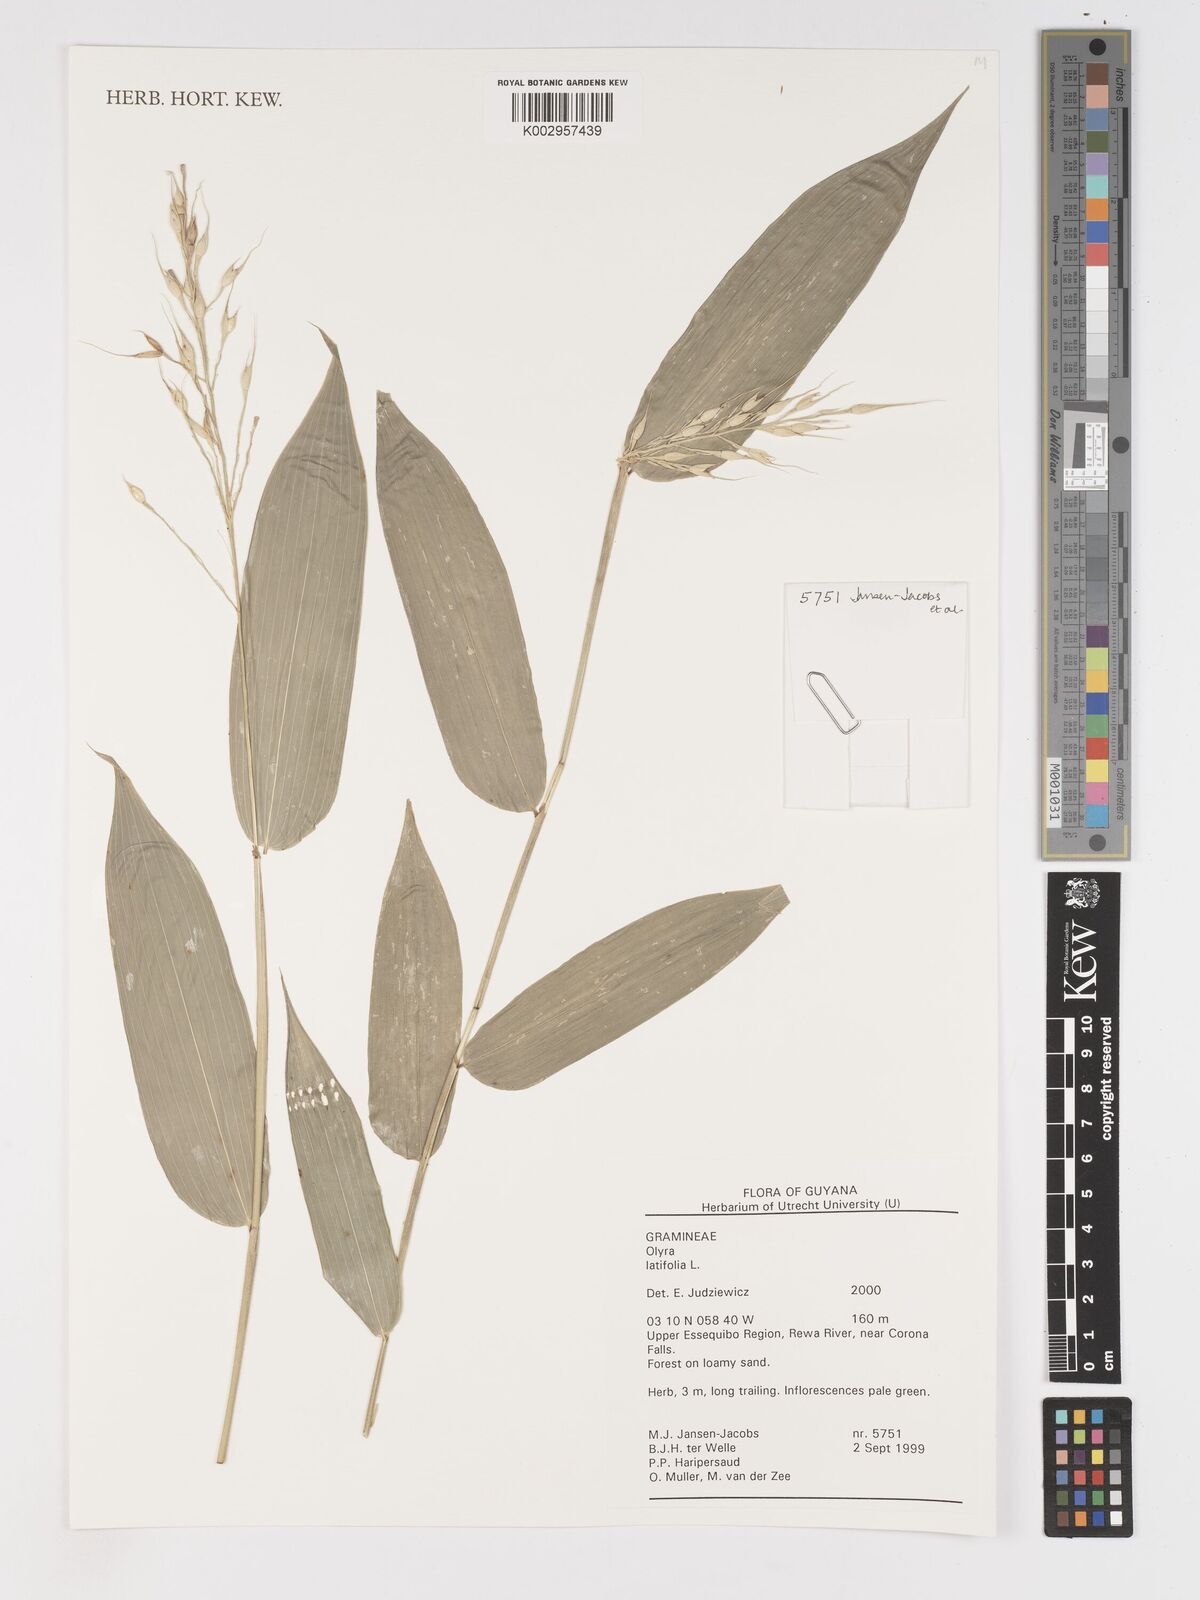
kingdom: Plantae
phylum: Tracheophyta
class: Liliopsida
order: Poales
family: Poaceae
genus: Olyra
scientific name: Olyra latifolia
